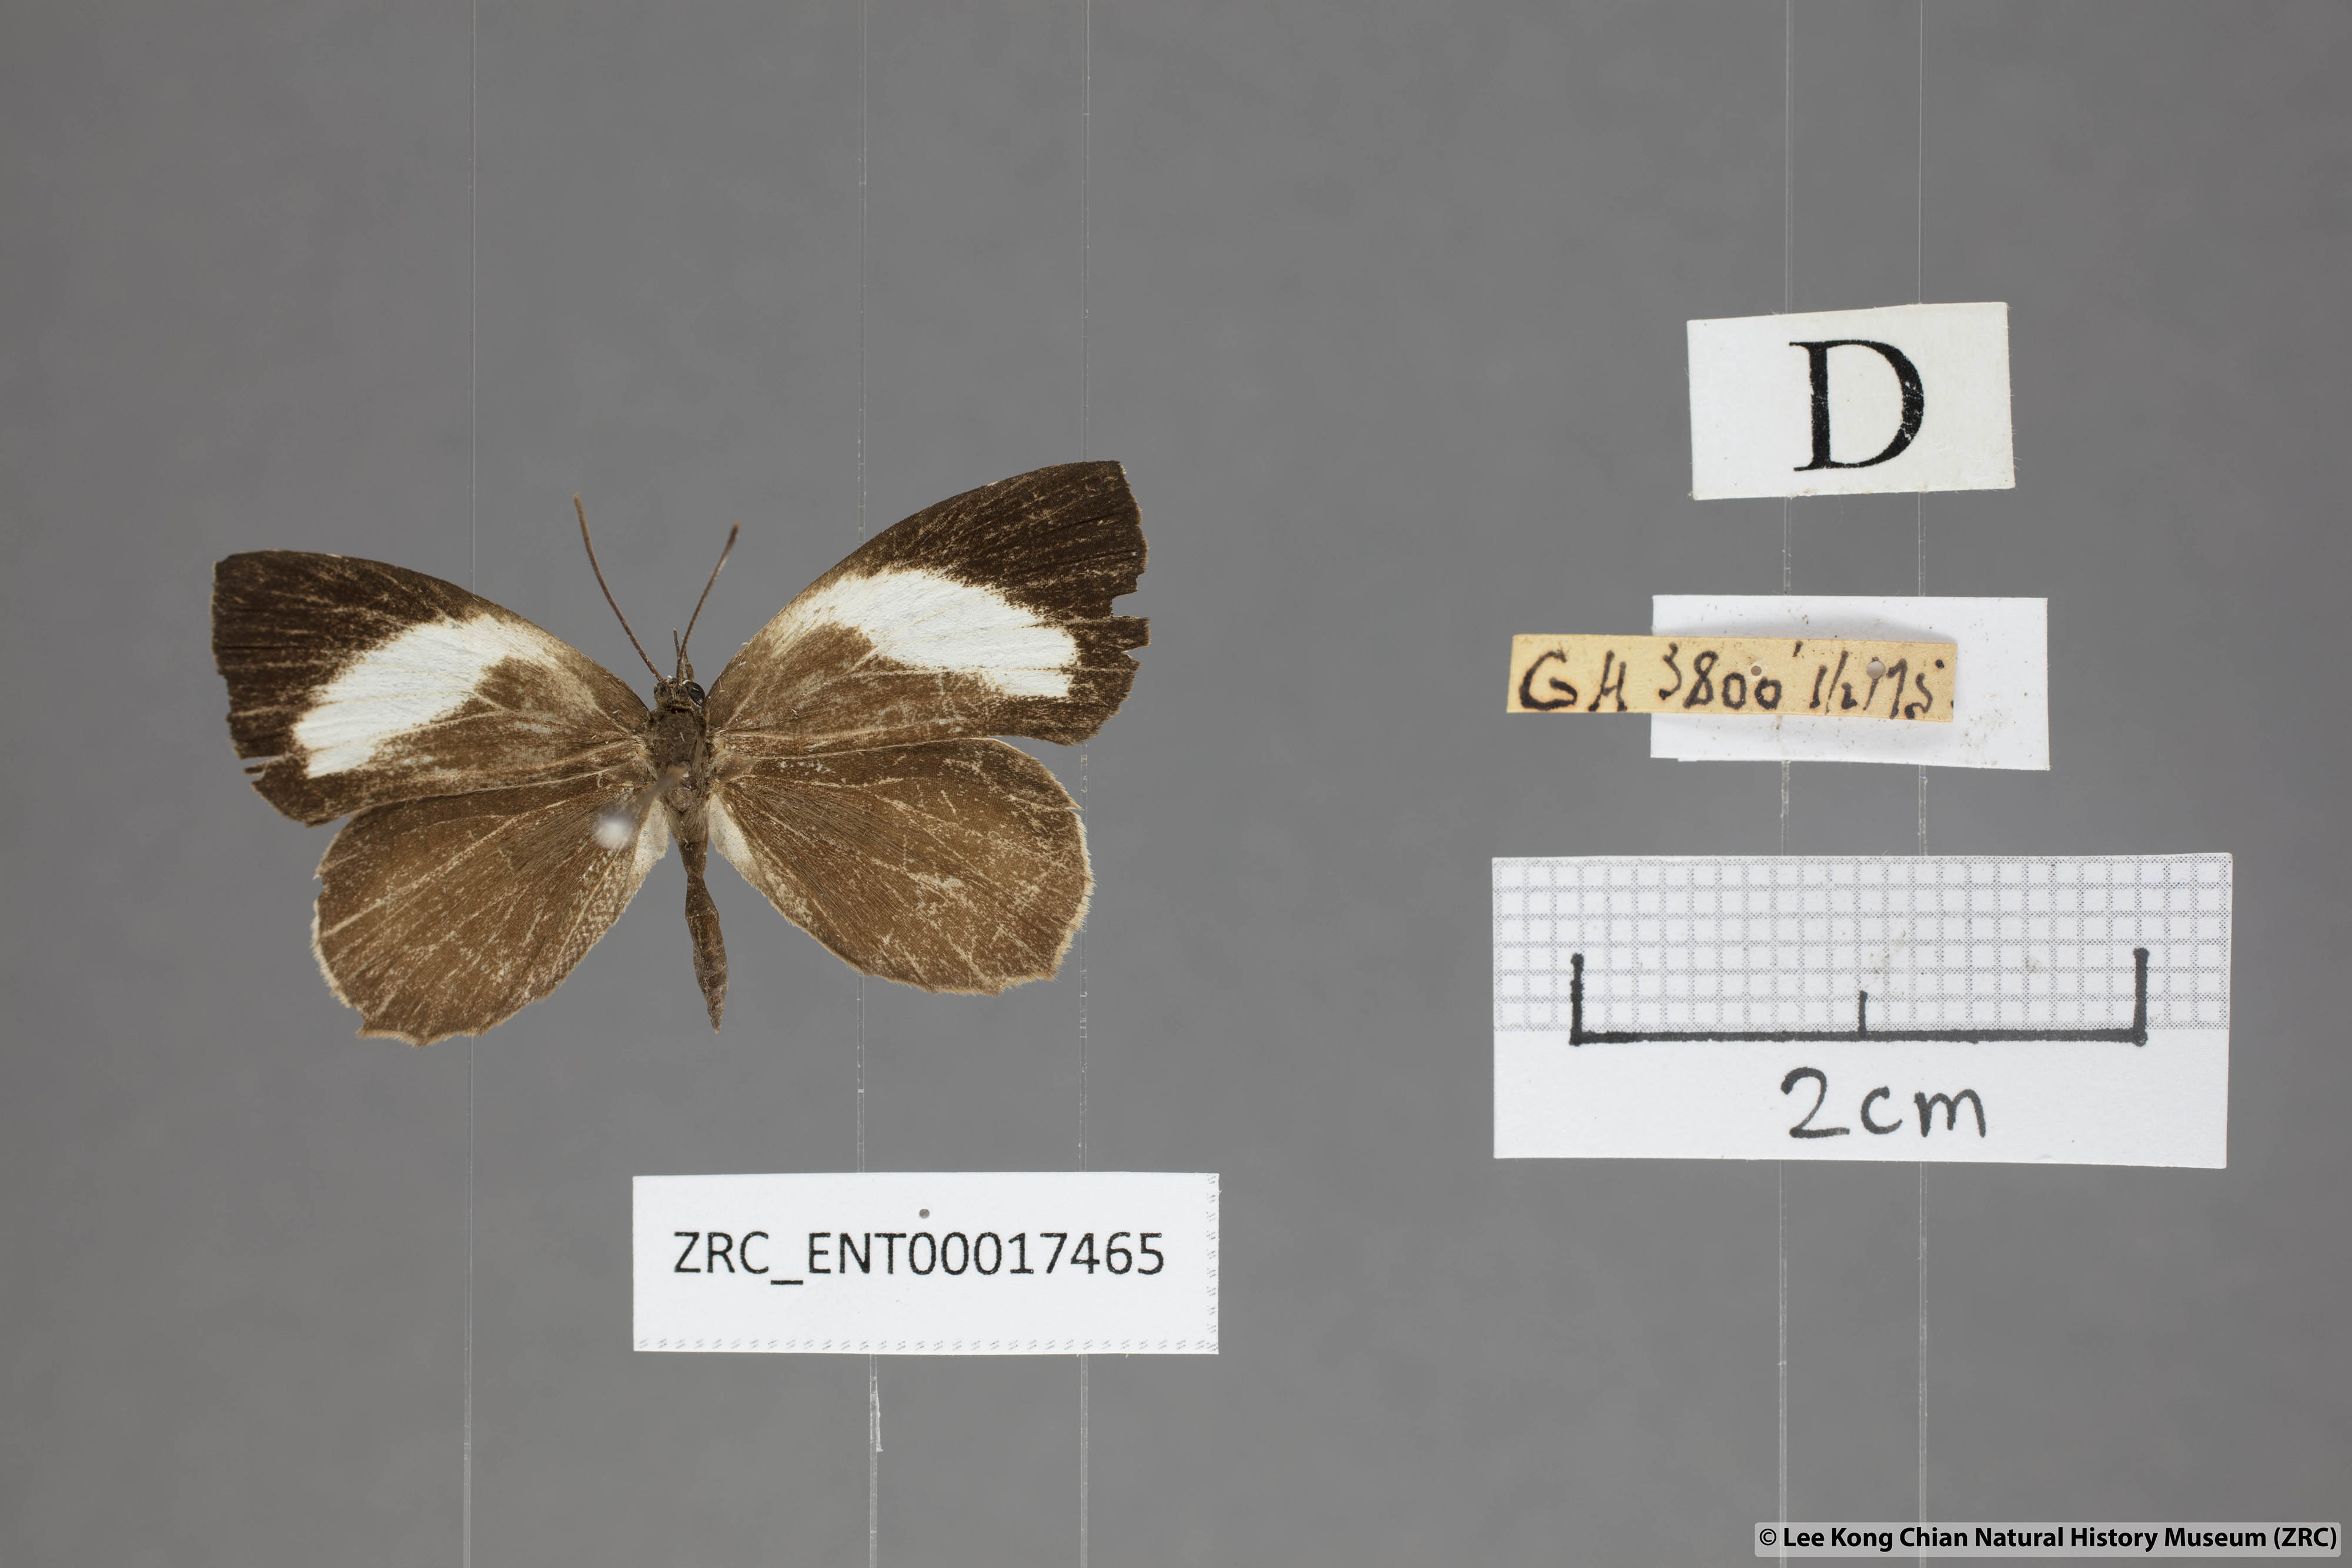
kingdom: Animalia
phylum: Arthropoda
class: Insecta
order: Lepidoptera
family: Lycaenidae
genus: Miletus
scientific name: Miletus nymphis
